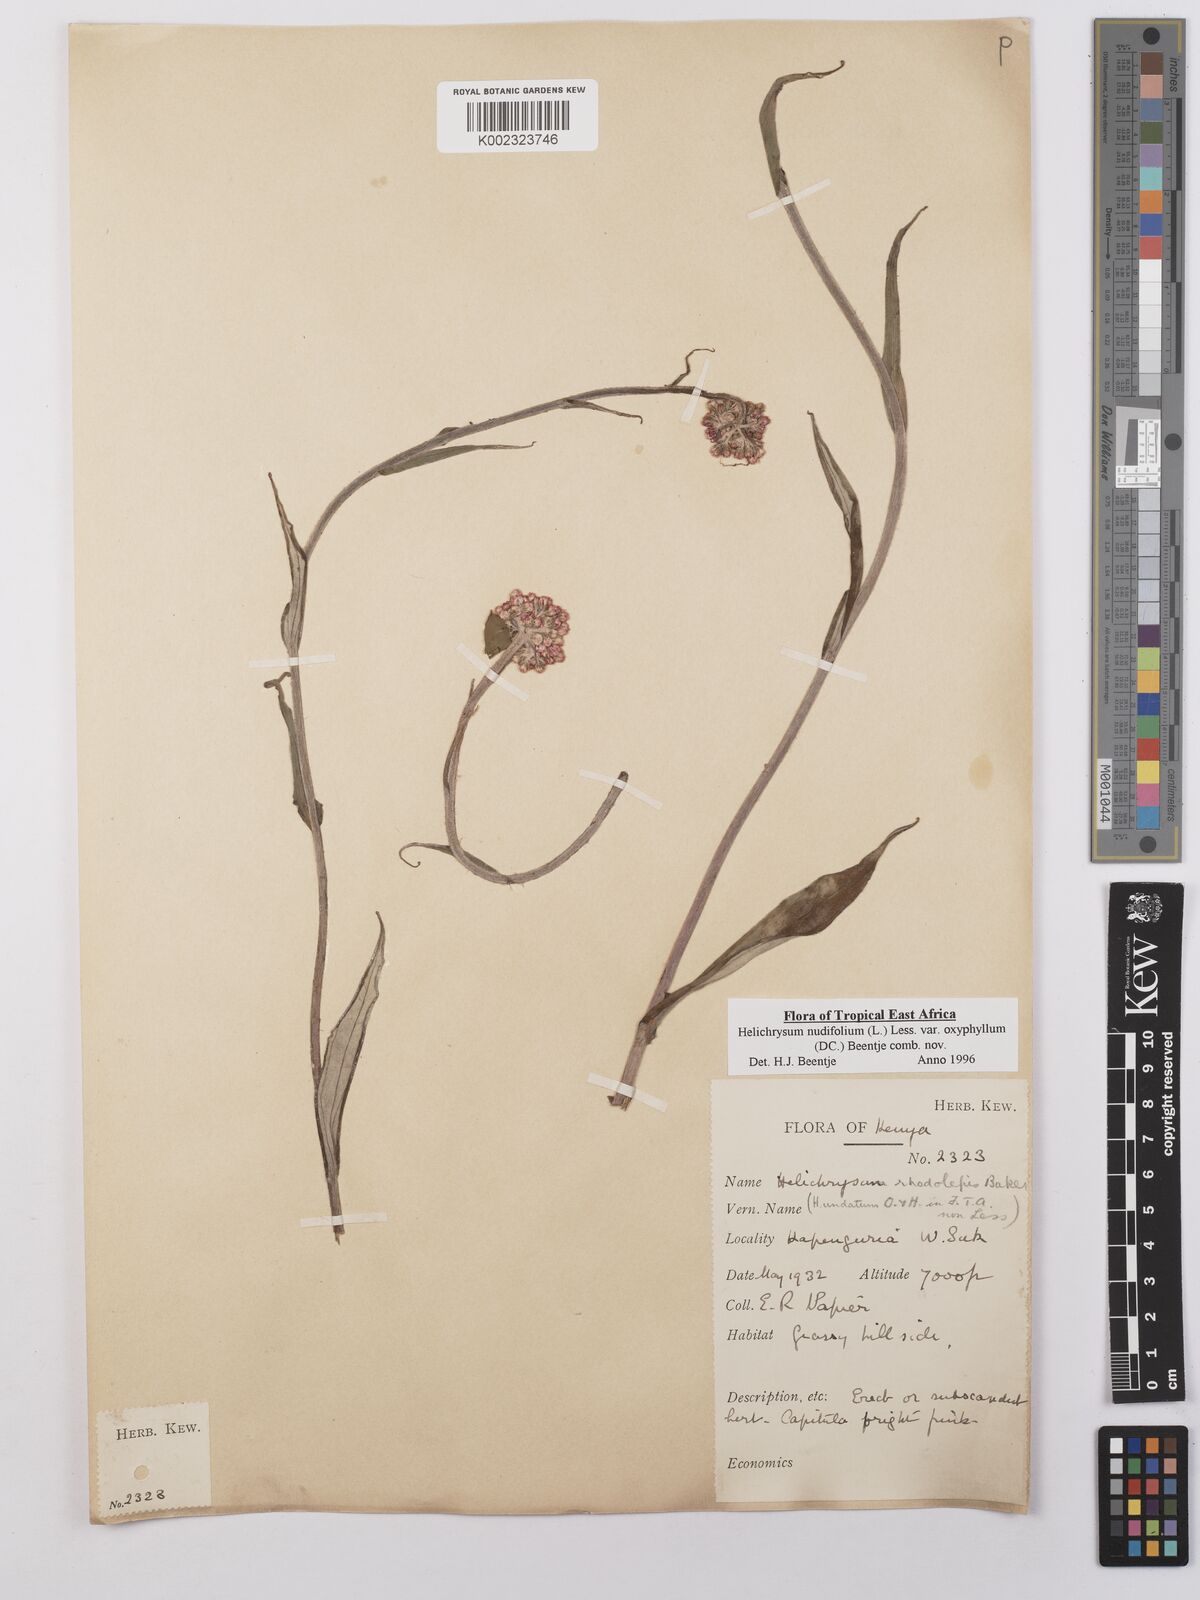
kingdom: Plantae
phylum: Tracheophyta
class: Magnoliopsida
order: Asterales
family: Asteraceae
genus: Helichrysum
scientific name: Helichrysum nudifolium
